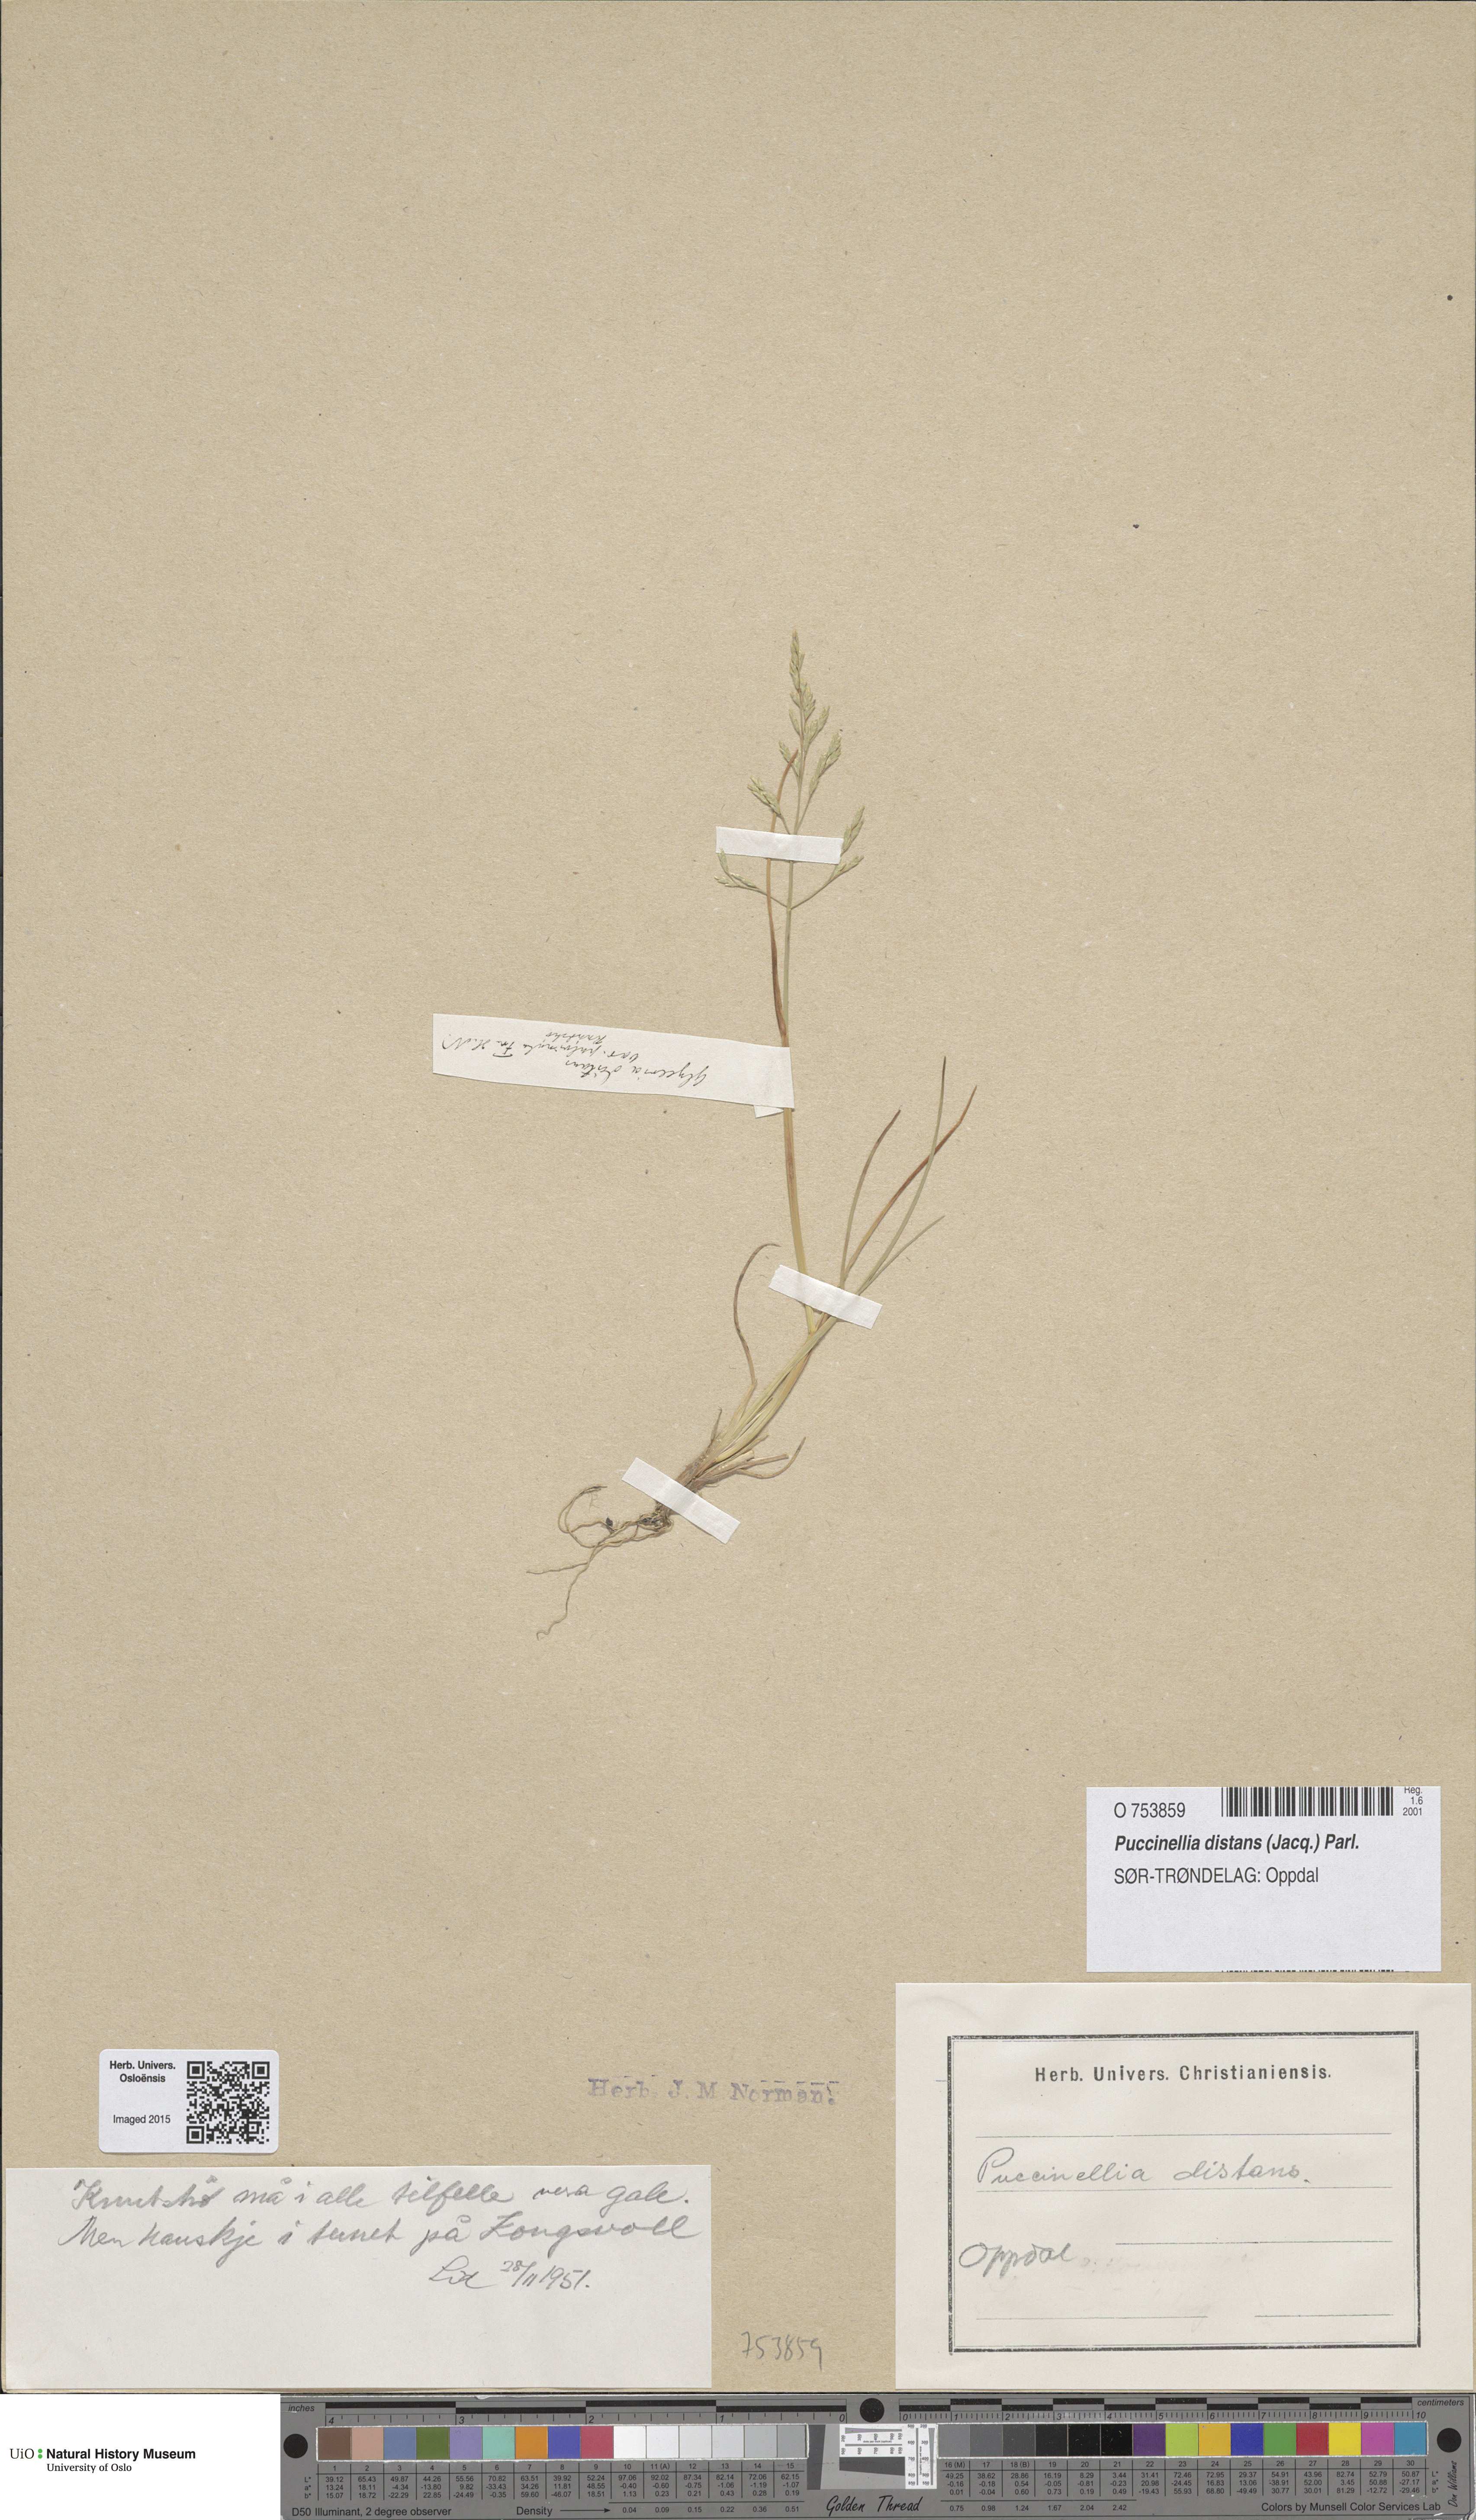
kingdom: Plantae
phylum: Tracheophyta
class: Liliopsida
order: Poales
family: Poaceae
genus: Puccinellia
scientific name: Puccinellia distans
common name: Weeping alkaligrass
